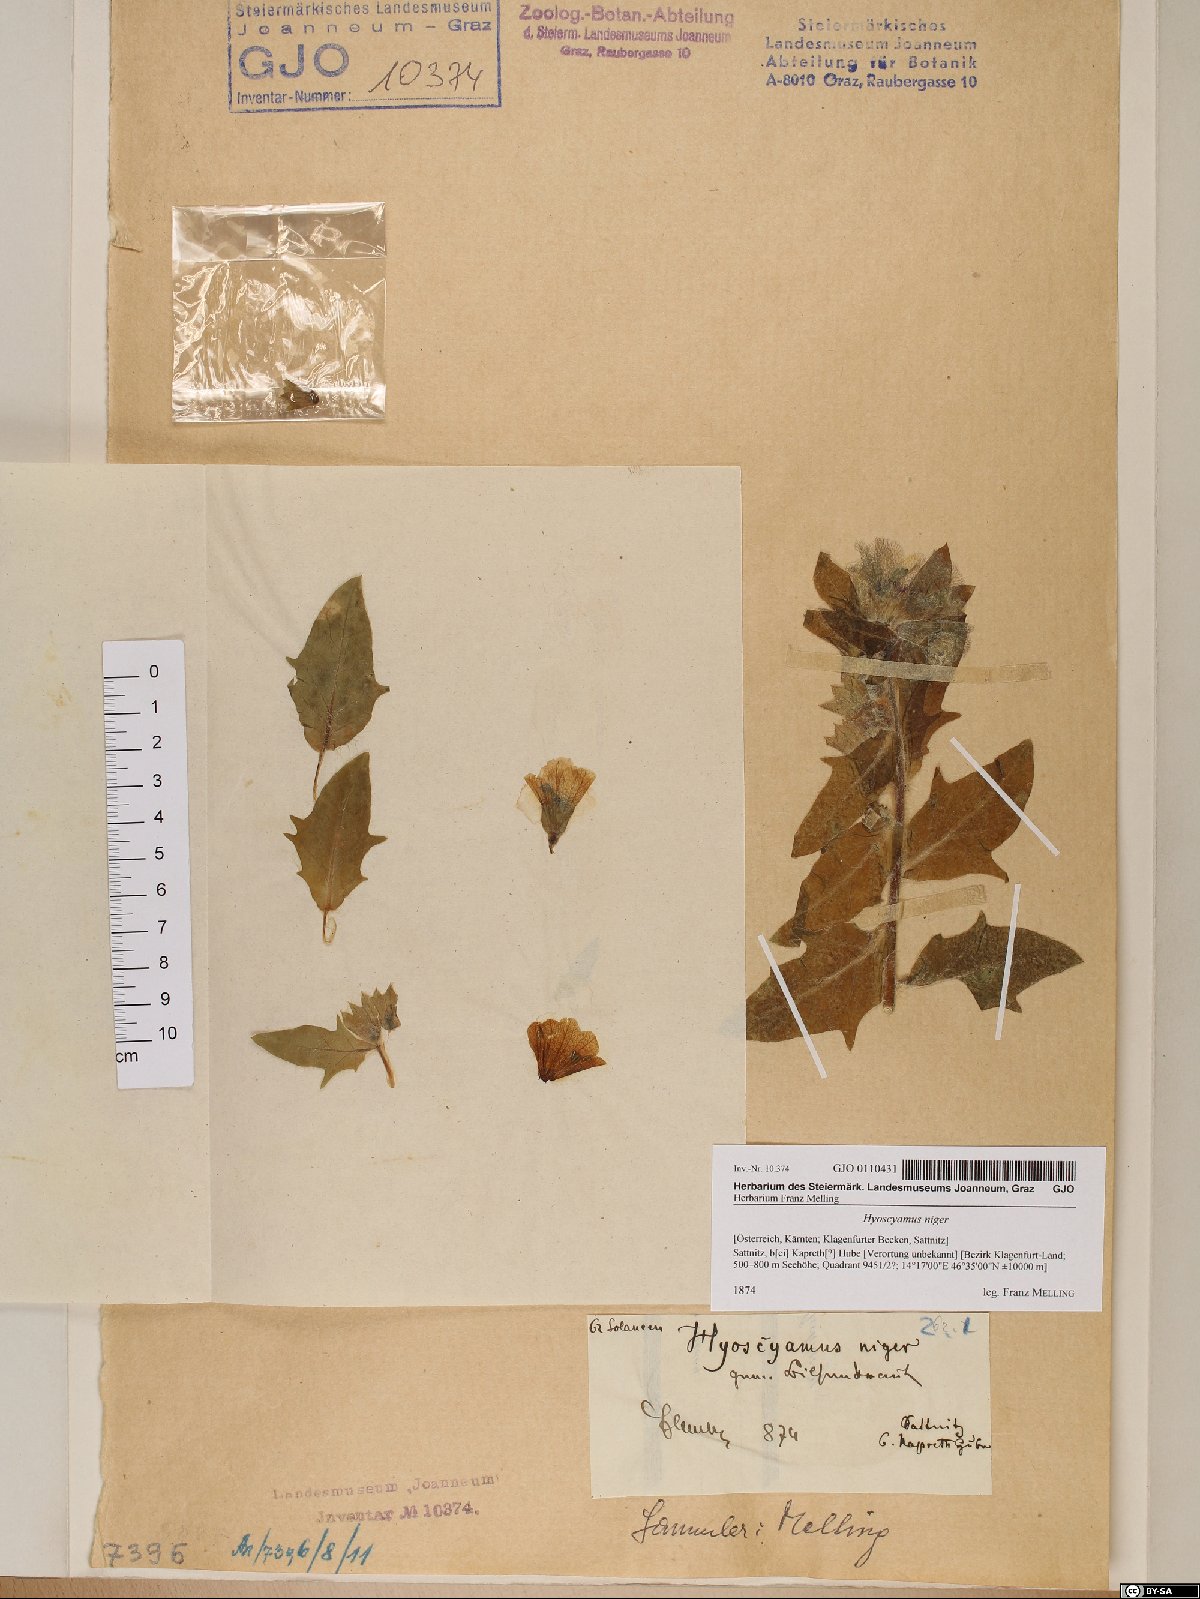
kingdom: Plantae
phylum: Tracheophyta
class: Magnoliopsida
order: Solanales
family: Solanaceae
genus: Hyoscyamus
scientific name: Hyoscyamus niger
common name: Henbane
